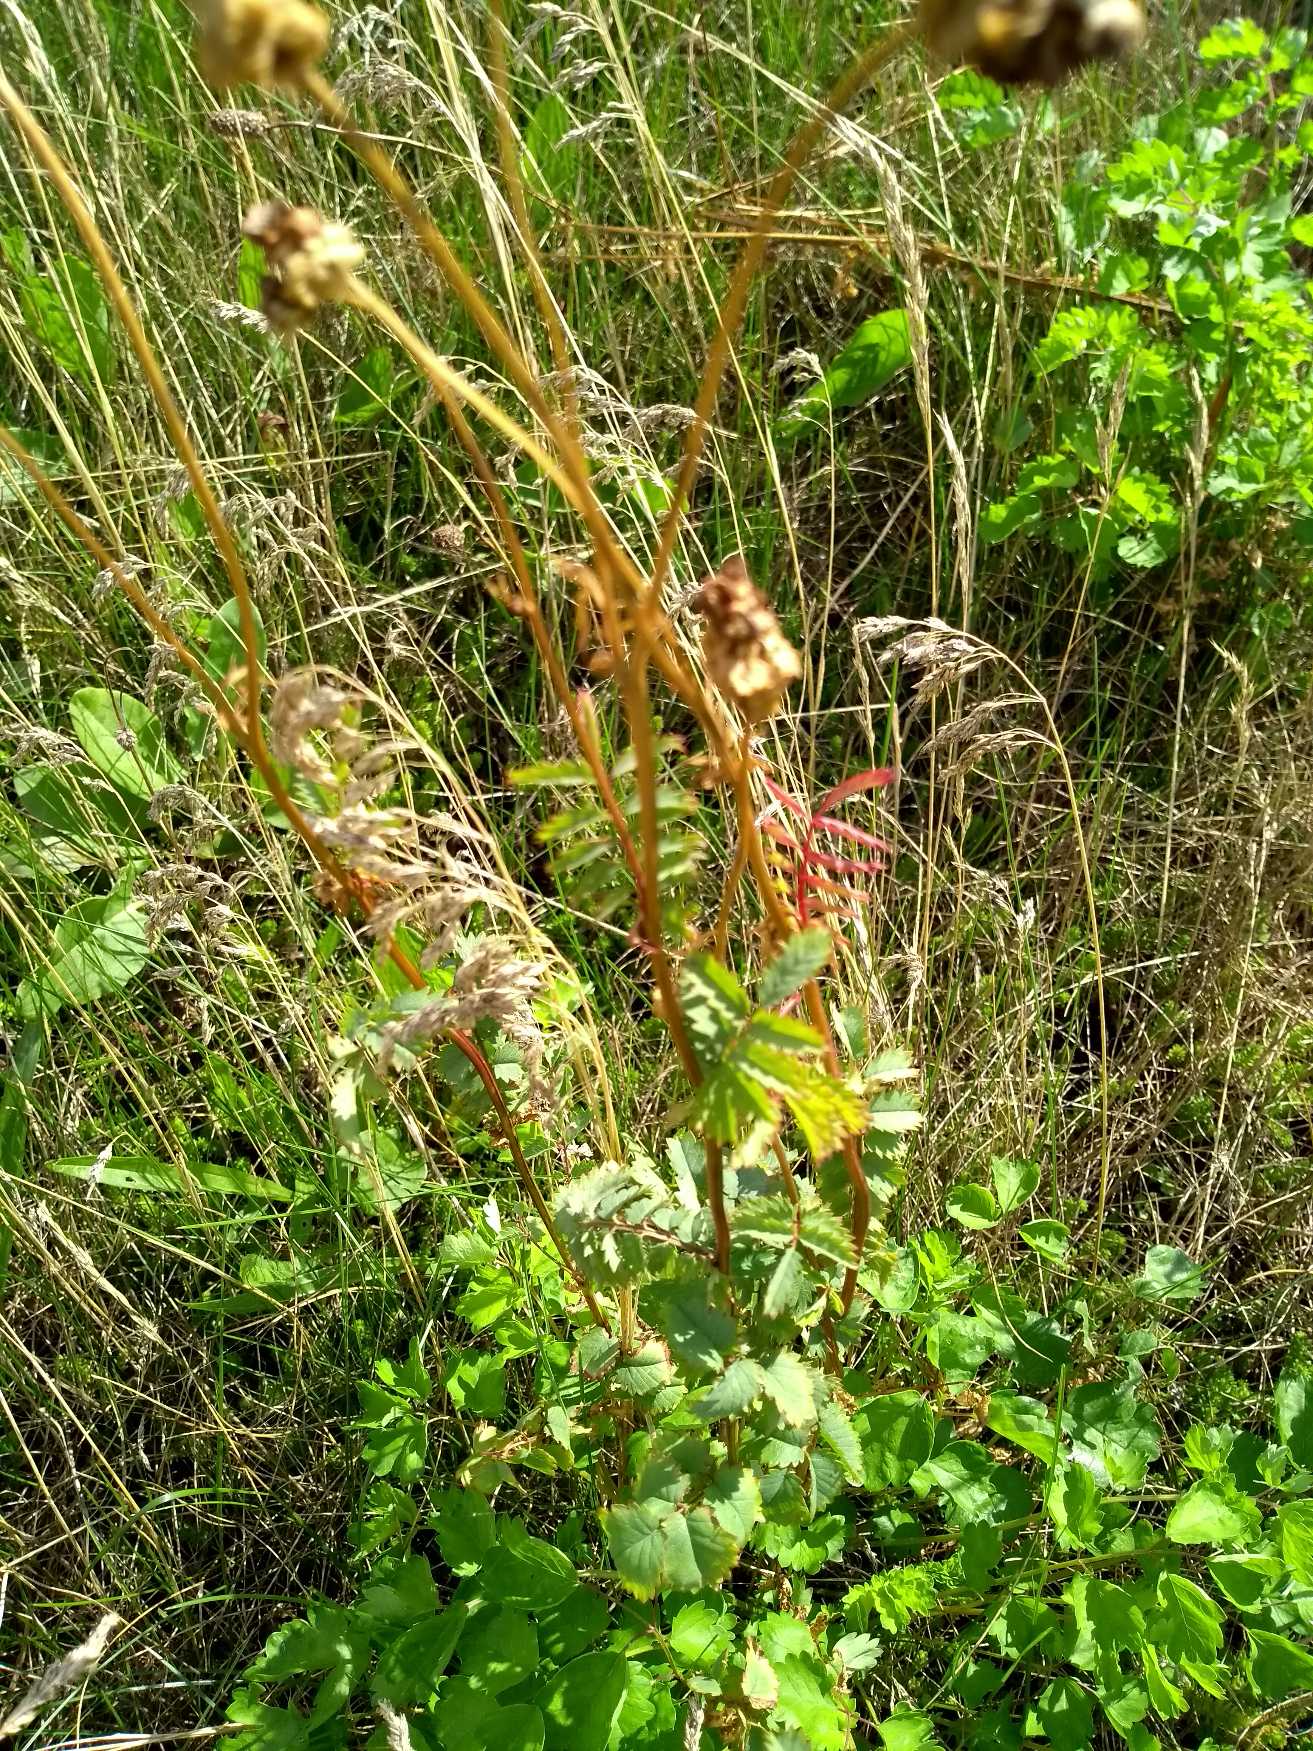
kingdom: Plantae
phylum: Tracheophyta
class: Magnoliopsida
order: Rosales
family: Rosaceae
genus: Poterium
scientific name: Poterium sanguisorba
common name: Bibernelle
